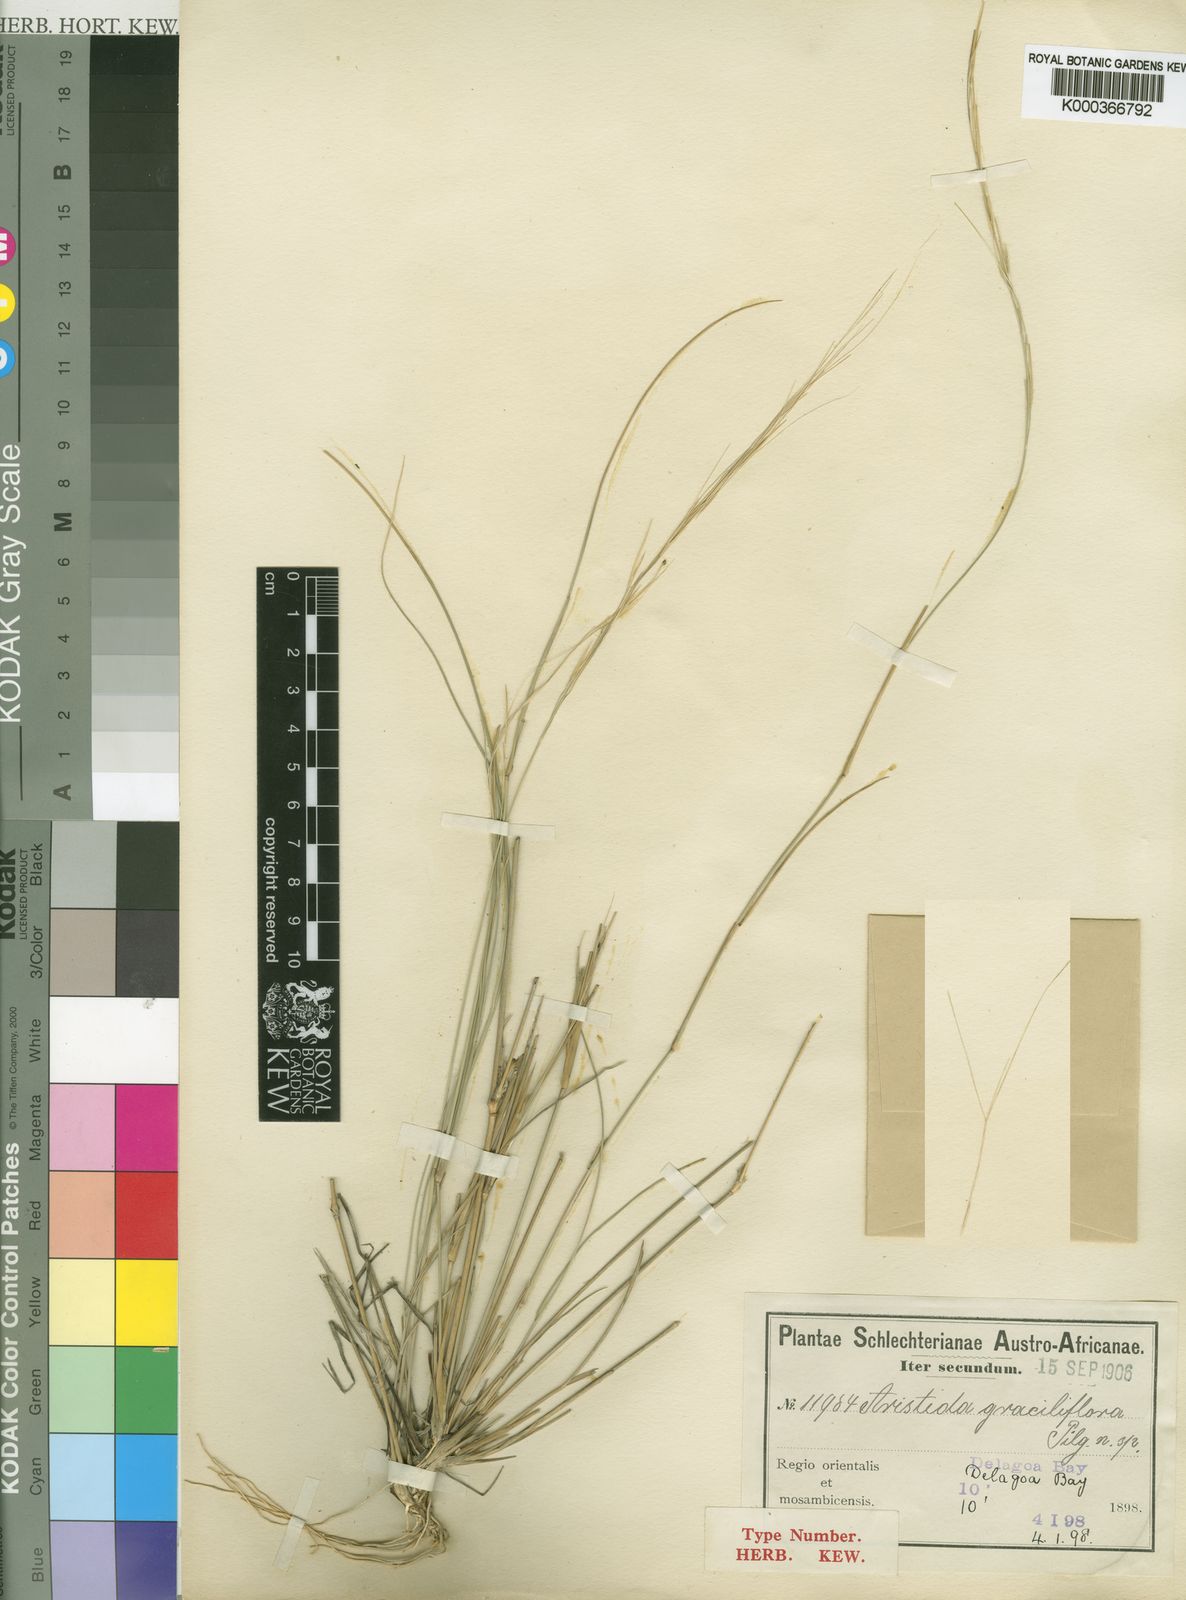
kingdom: Plantae
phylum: Tracheophyta
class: Liliopsida
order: Poales
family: Poaceae
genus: Aristida
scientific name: Aristida
